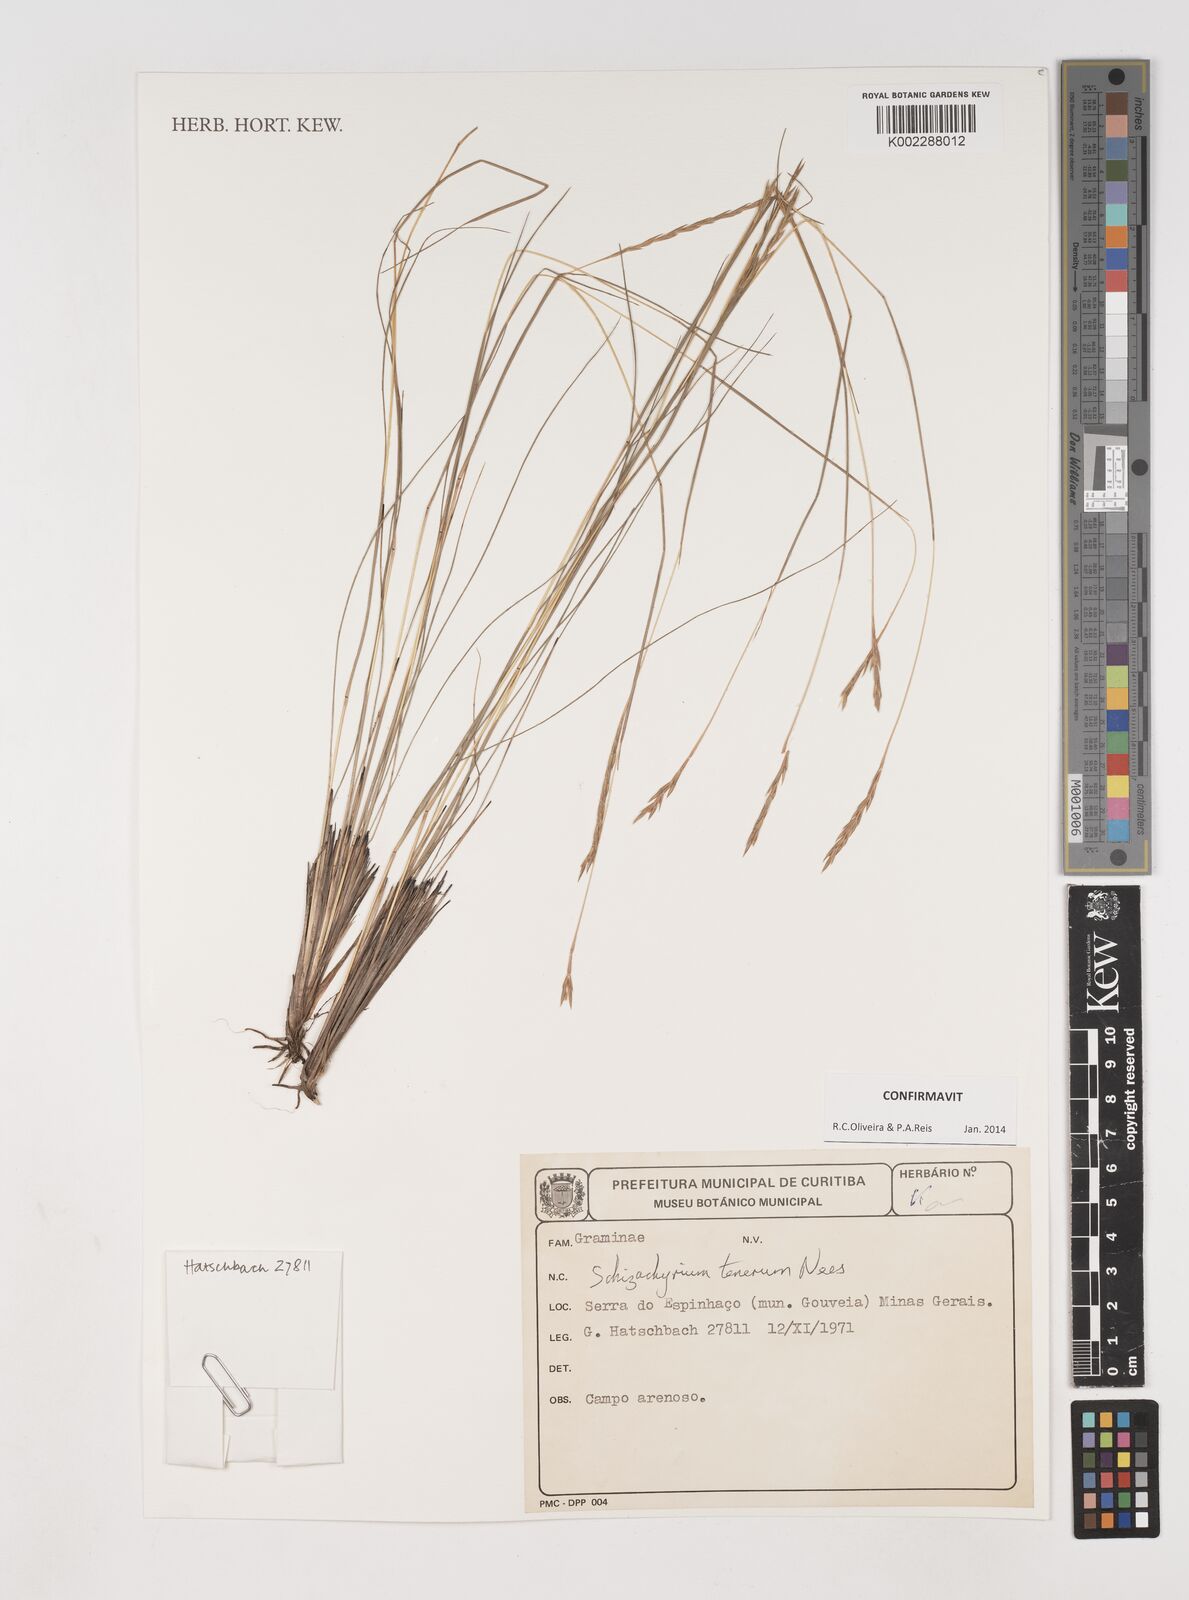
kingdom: Plantae
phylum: Tracheophyta
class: Liliopsida
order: Poales
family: Poaceae
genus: Andropogon
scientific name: Andropogon tener
